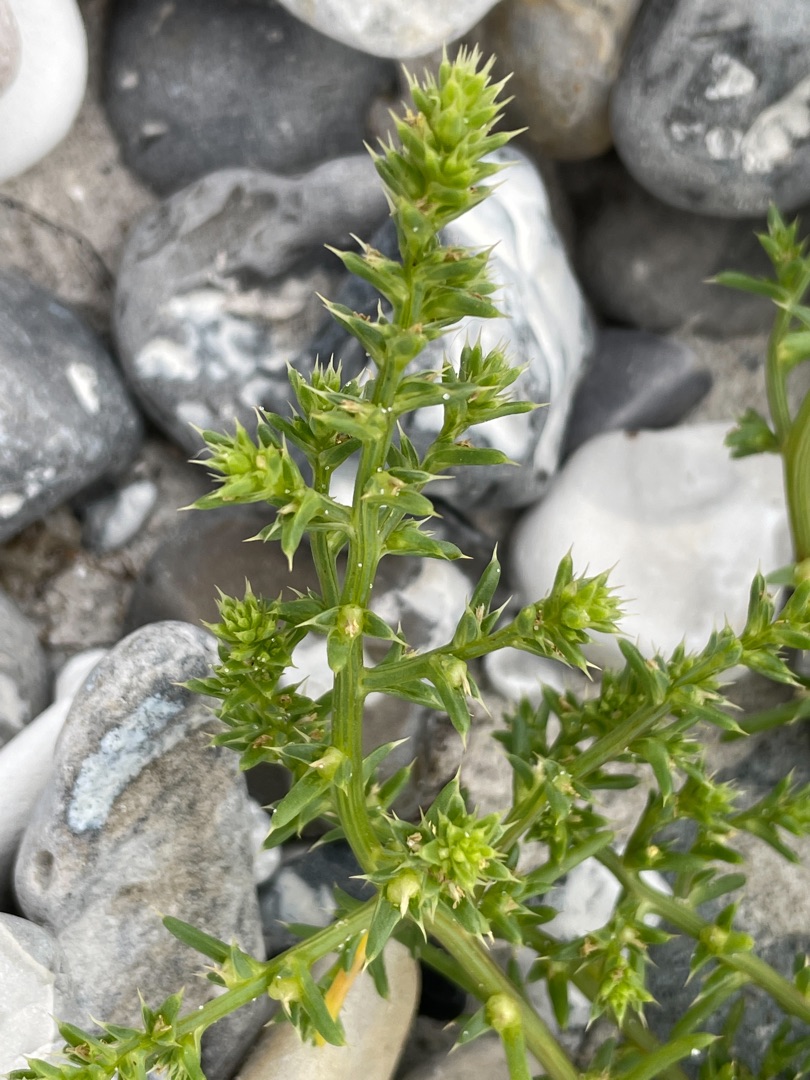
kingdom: Plantae
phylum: Tracheophyta
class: Magnoliopsida
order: Caryophyllales
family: Amaranthaceae
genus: Salsola
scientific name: Salsola kali
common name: Sodaurt
